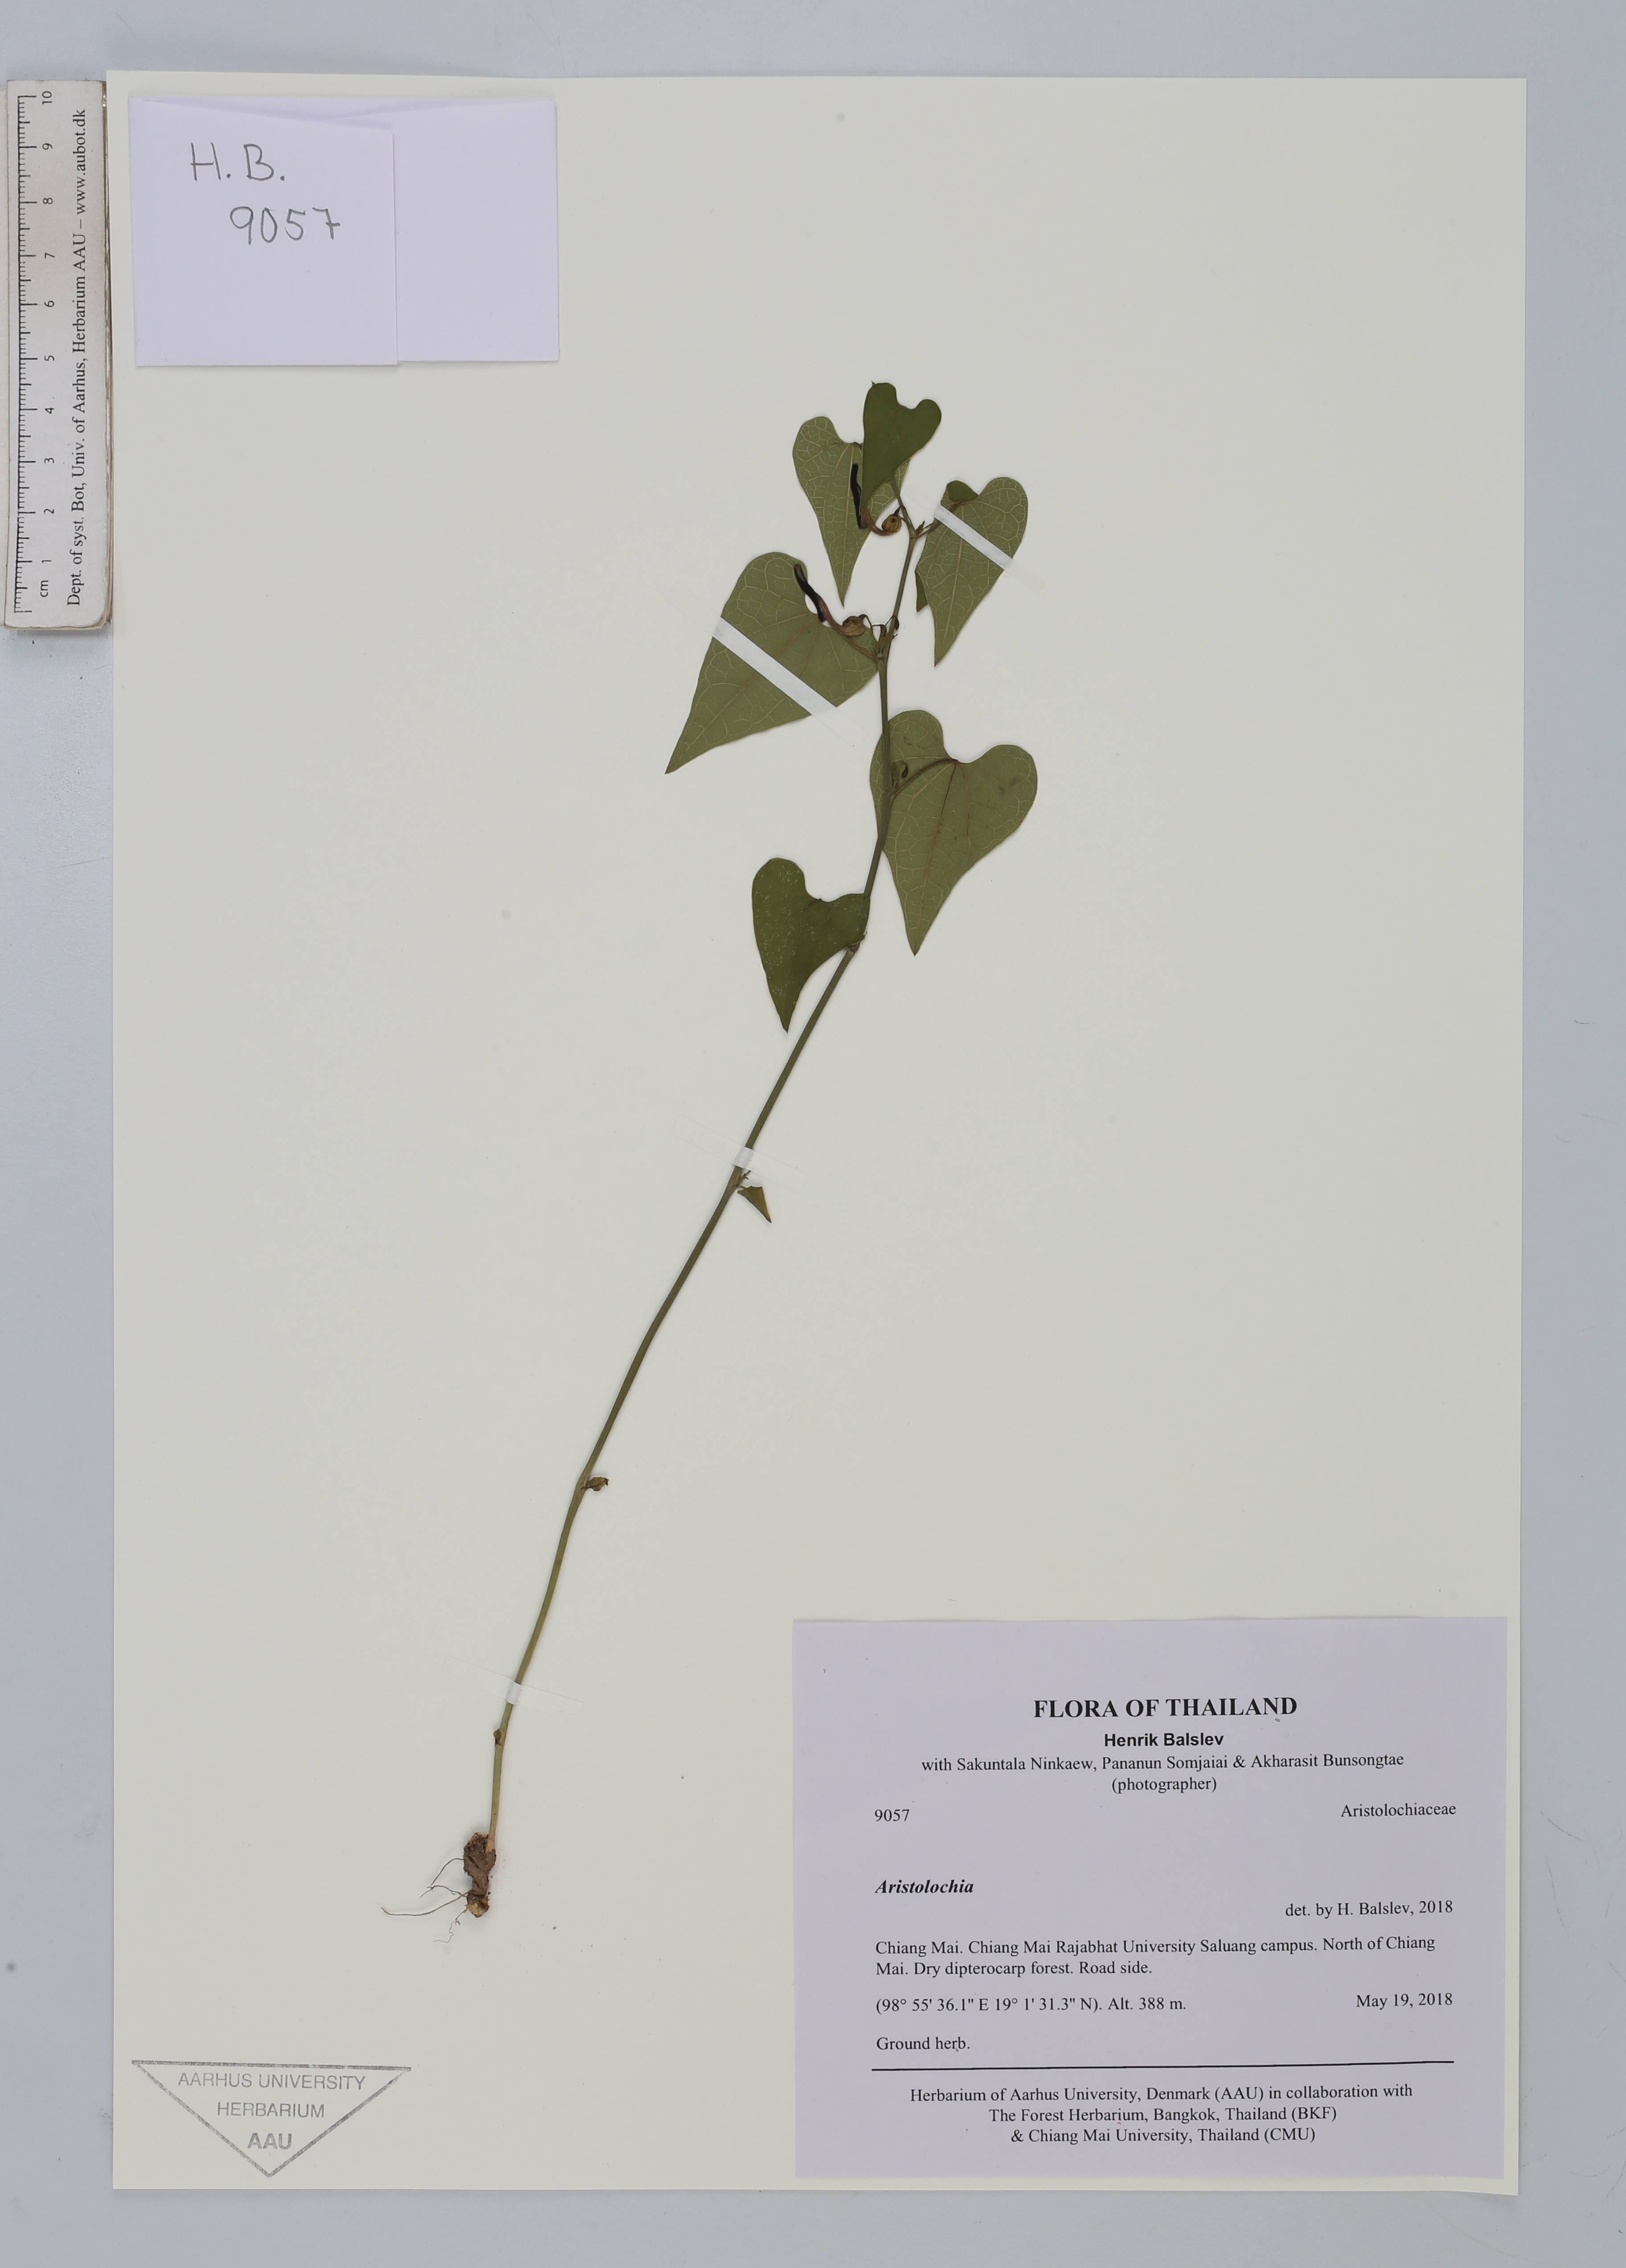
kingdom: Plantae
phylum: Tracheophyta
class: Magnoliopsida
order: Piperales
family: Aristolochiaceae
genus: Aristolochia
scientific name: Aristolochia
